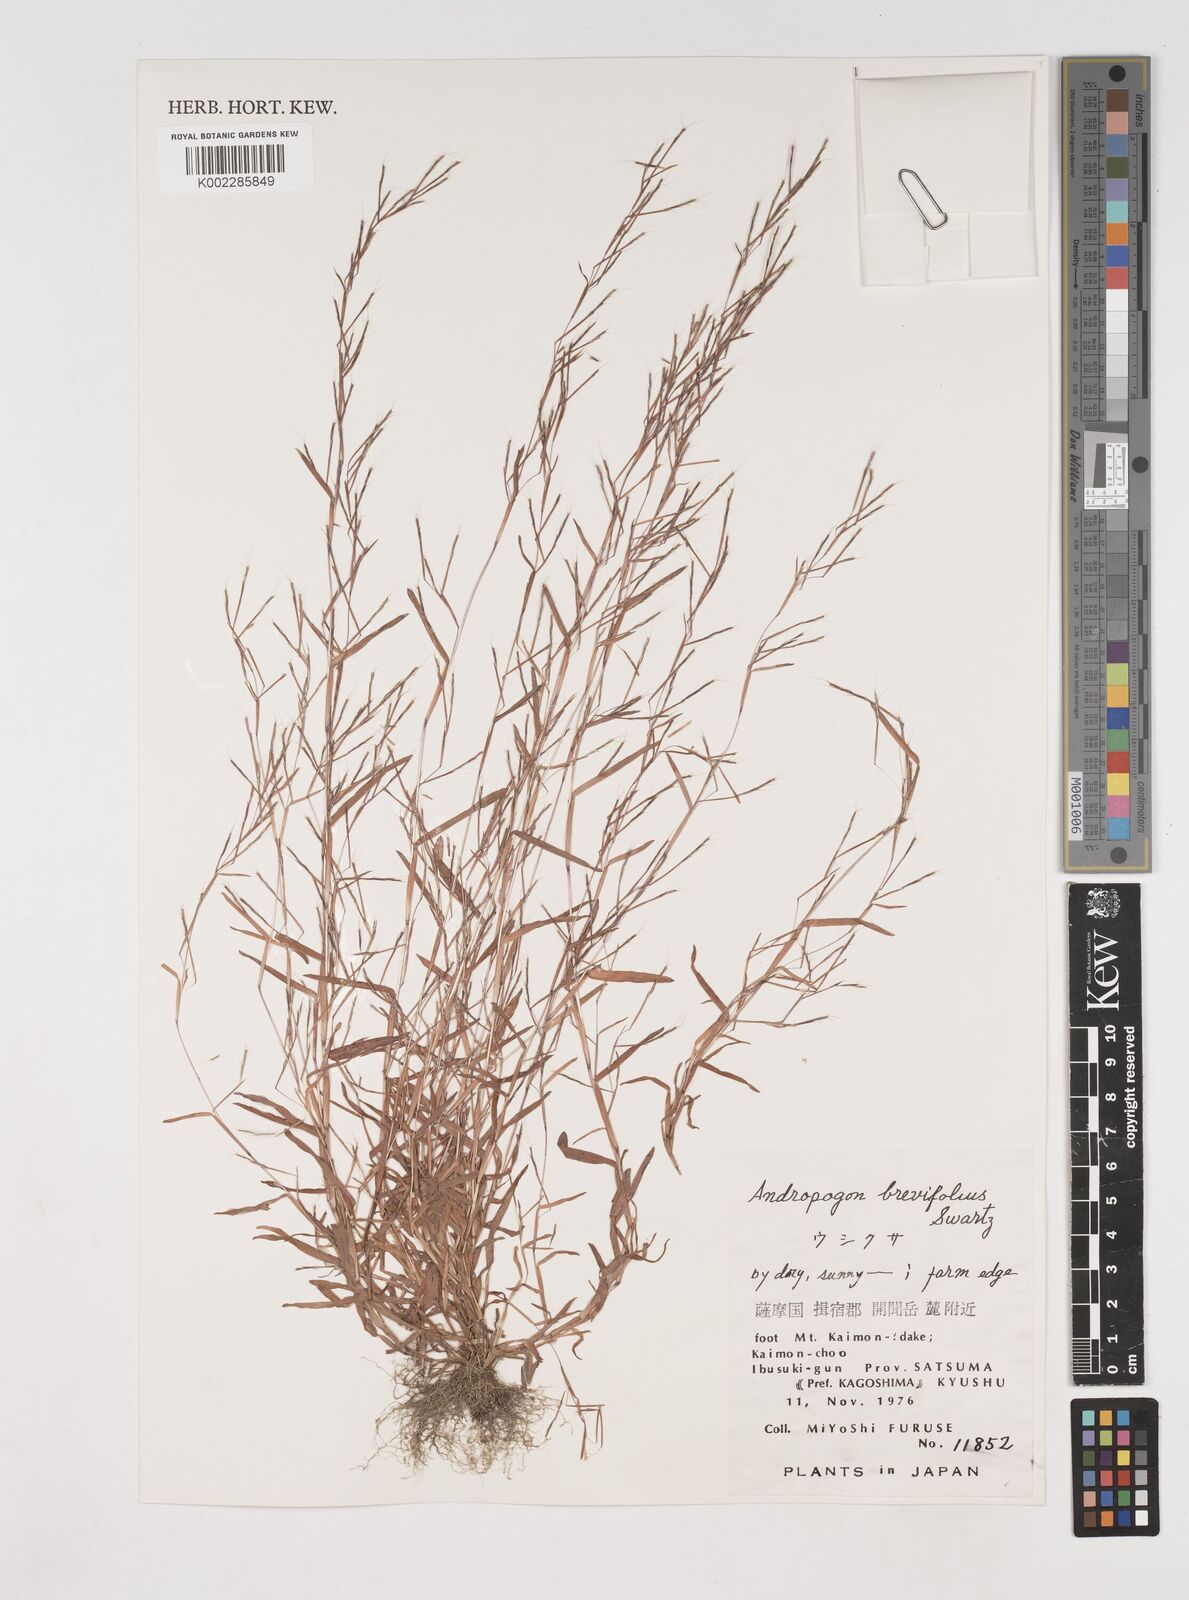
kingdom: Plantae
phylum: Tracheophyta
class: Liliopsida
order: Poales
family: Poaceae
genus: Schizachyrium
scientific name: Schizachyrium brevifolium
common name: Serillo dulce
